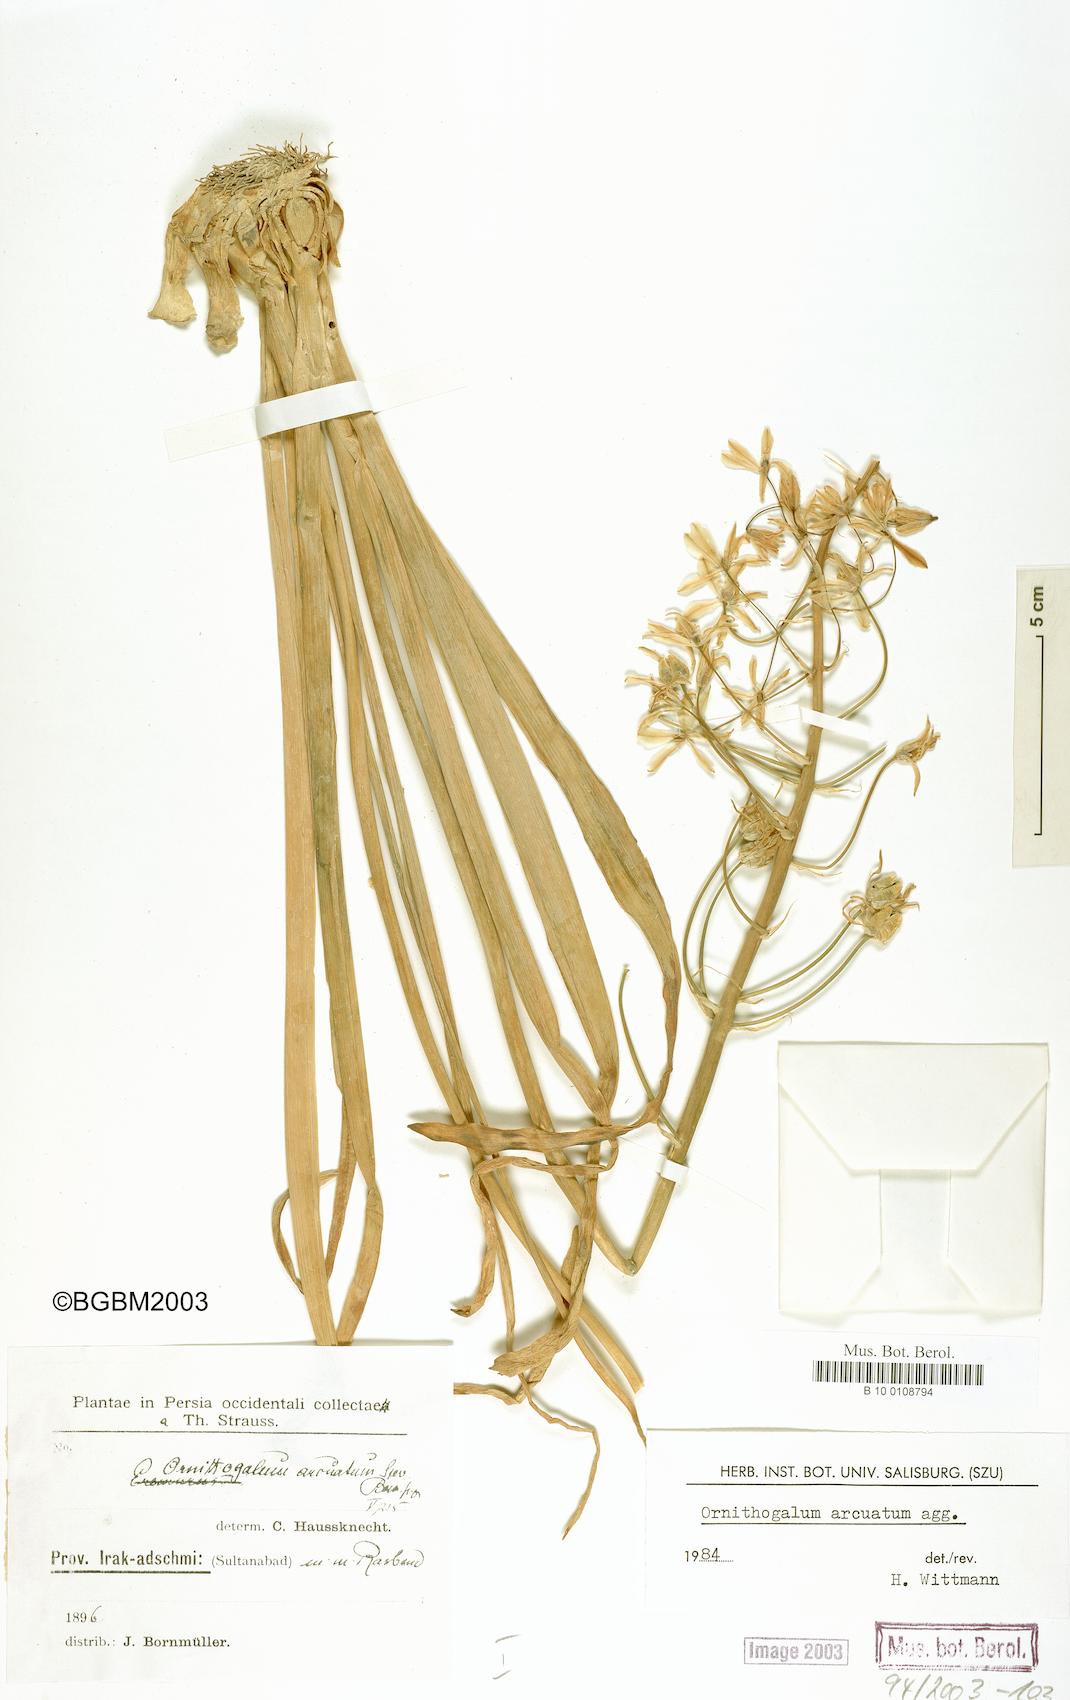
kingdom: Plantae
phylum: Tracheophyta
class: Liliopsida
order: Asparagales
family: Asparagaceae
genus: Ornithogalum
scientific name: Ornithogalum arcuatum
